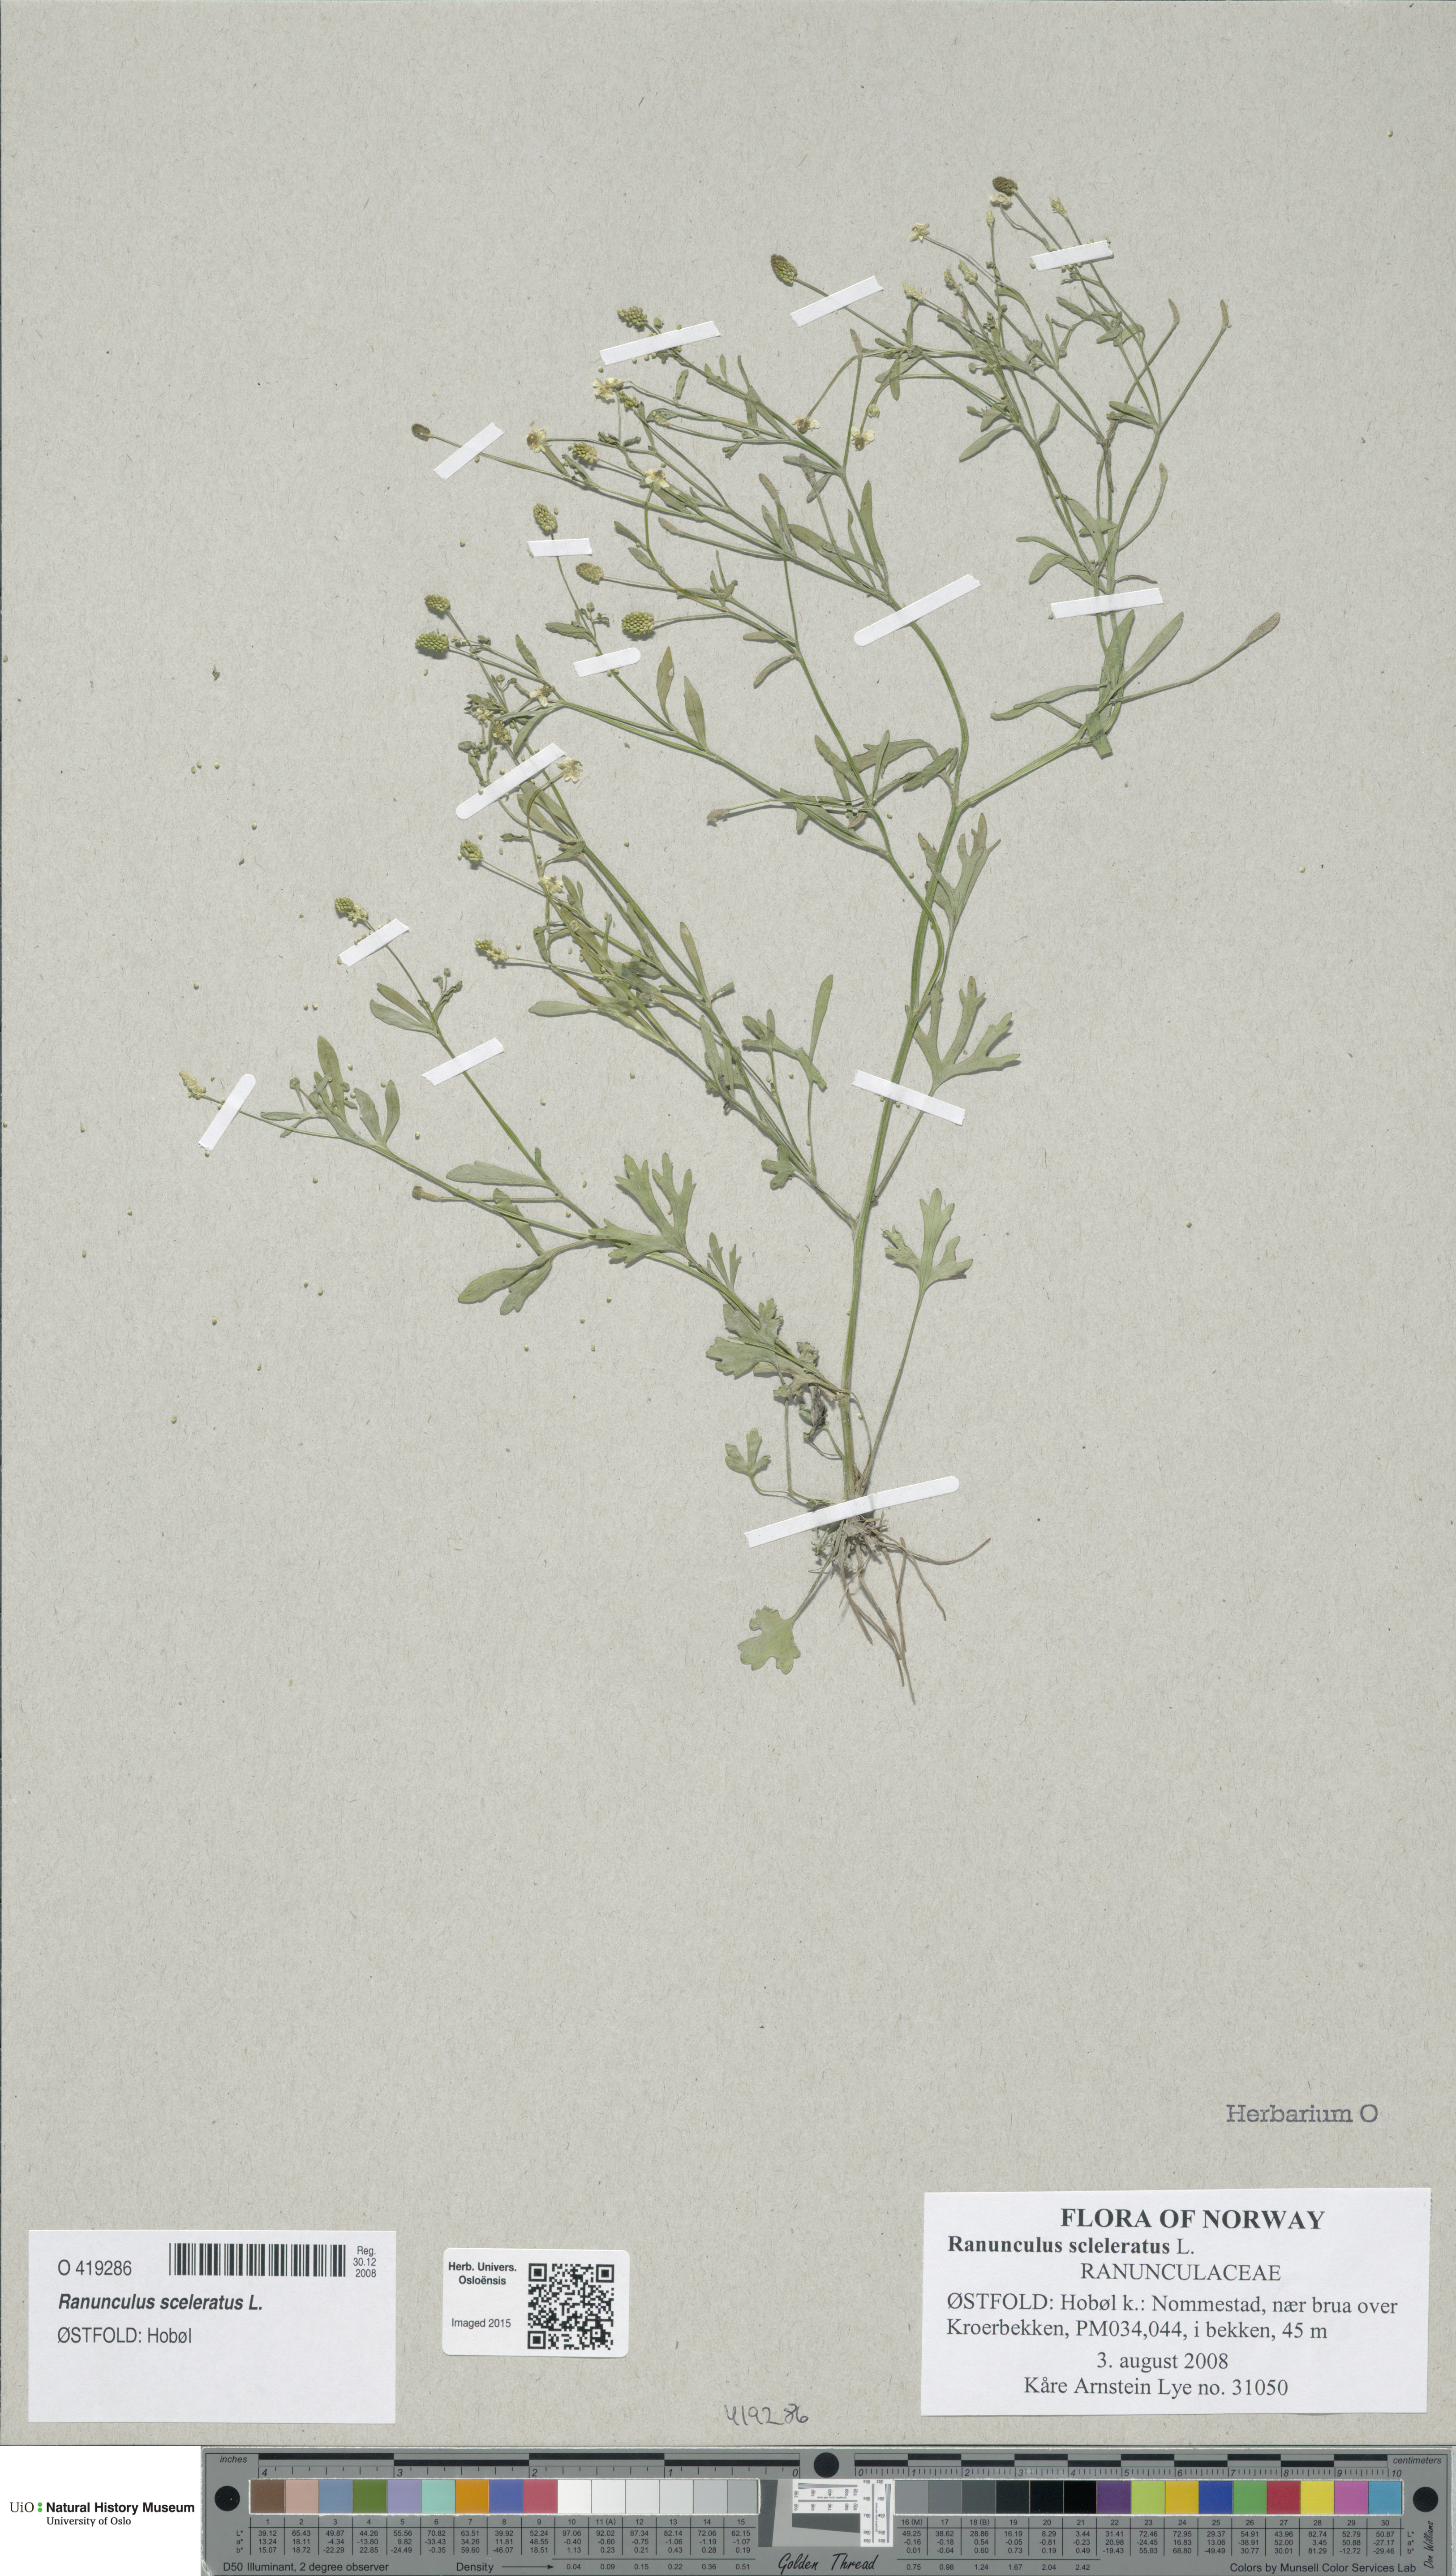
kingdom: Plantae
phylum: Tracheophyta
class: Magnoliopsida
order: Ranunculales
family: Ranunculaceae
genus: Ranunculus
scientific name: Ranunculus sceleratus
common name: Celery-leaved buttercup
